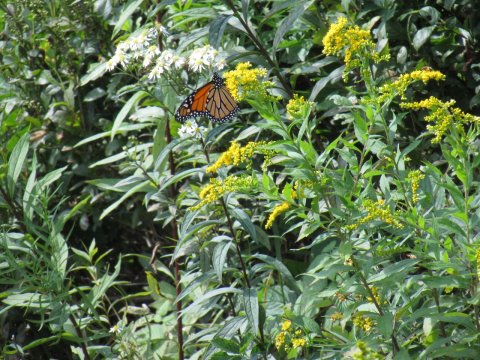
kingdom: Animalia
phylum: Arthropoda
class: Insecta
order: Lepidoptera
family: Nymphalidae
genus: Danaus
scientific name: Danaus plexippus
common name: Monarch
